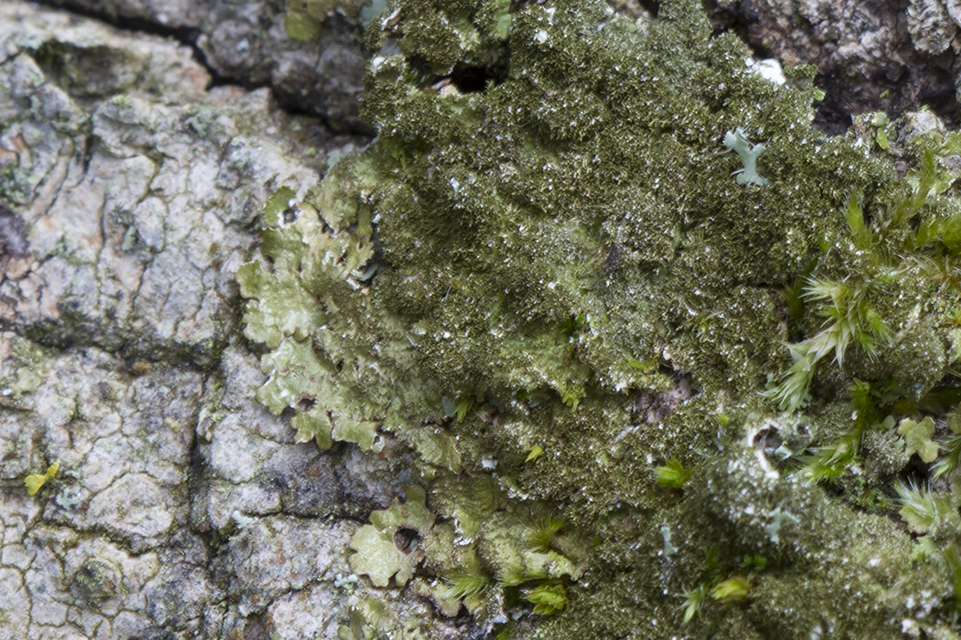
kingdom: Fungi
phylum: Ascomycota
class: Lecanoromycetes
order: Lecanorales
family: Parmeliaceae
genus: Melanelixia
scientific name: Melanelixia glabratula
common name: glinsende skållav
